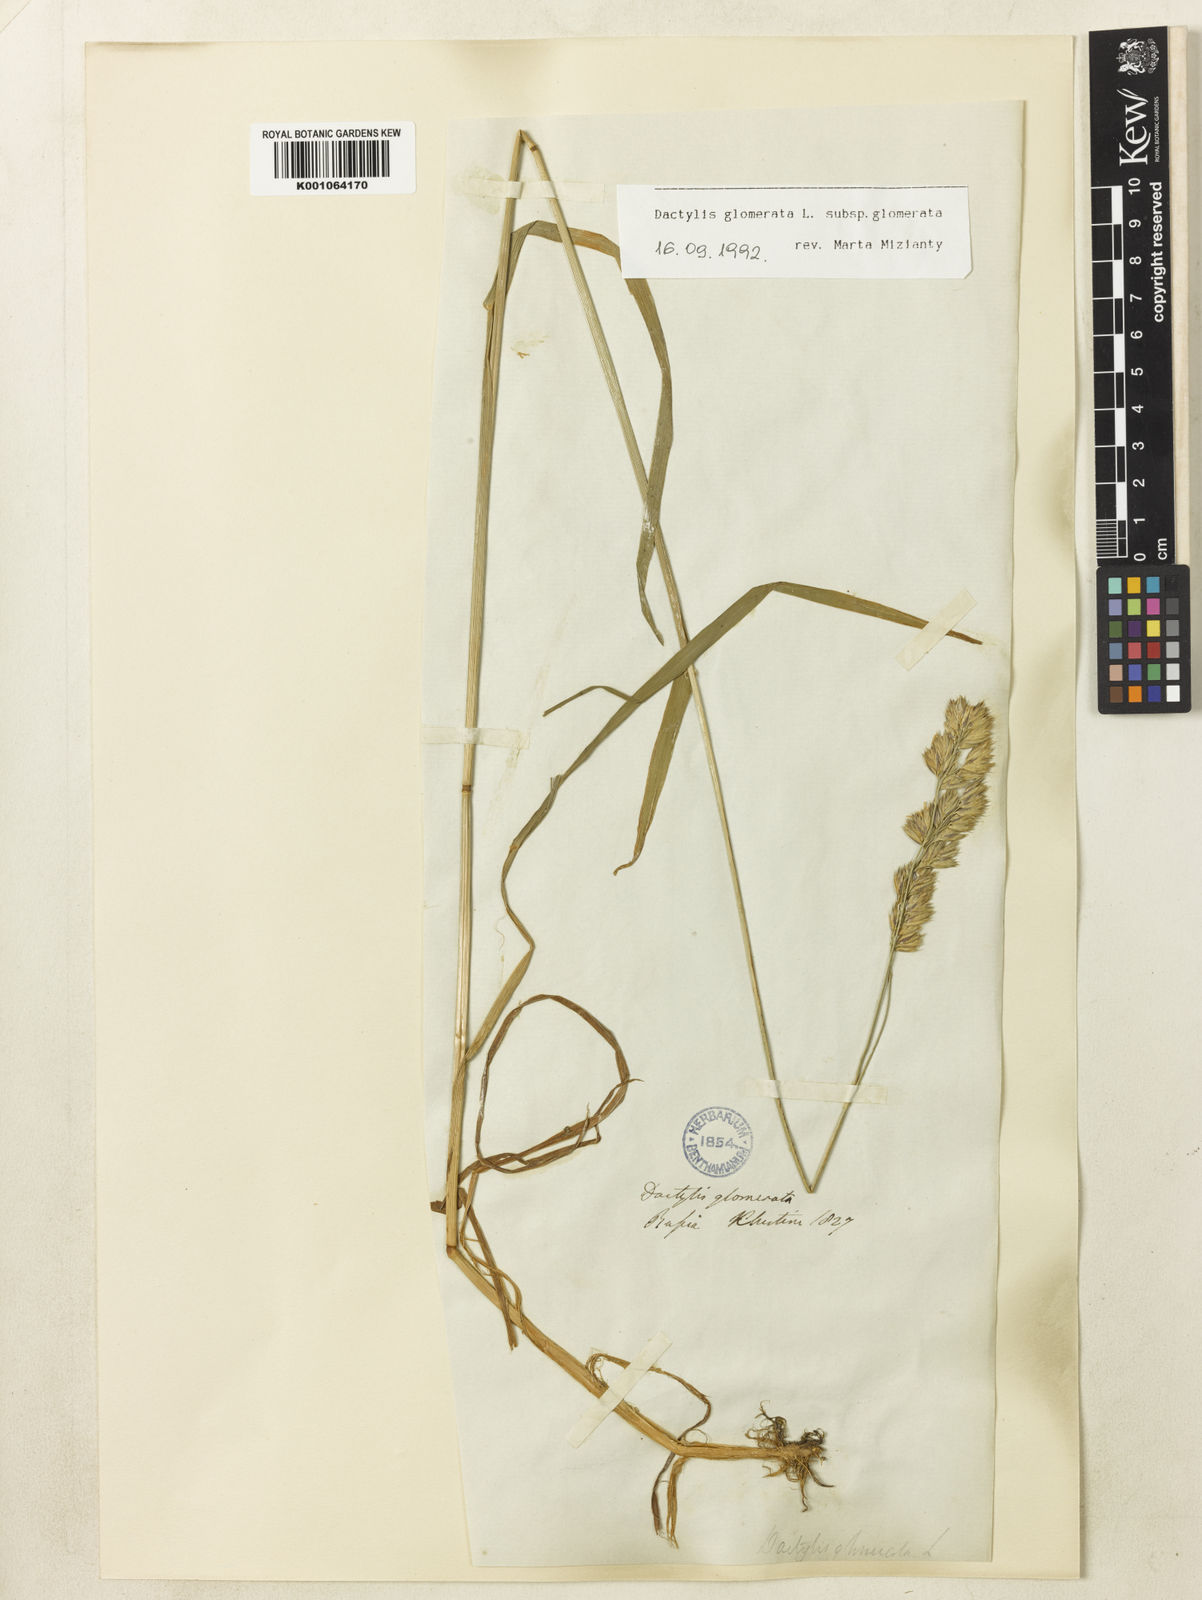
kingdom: Plantae
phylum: Tracheophyta
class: Liliopsida
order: Poales
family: Poaceae
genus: Dactylis
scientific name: Dactylis glomerata
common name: Orchardgrass
